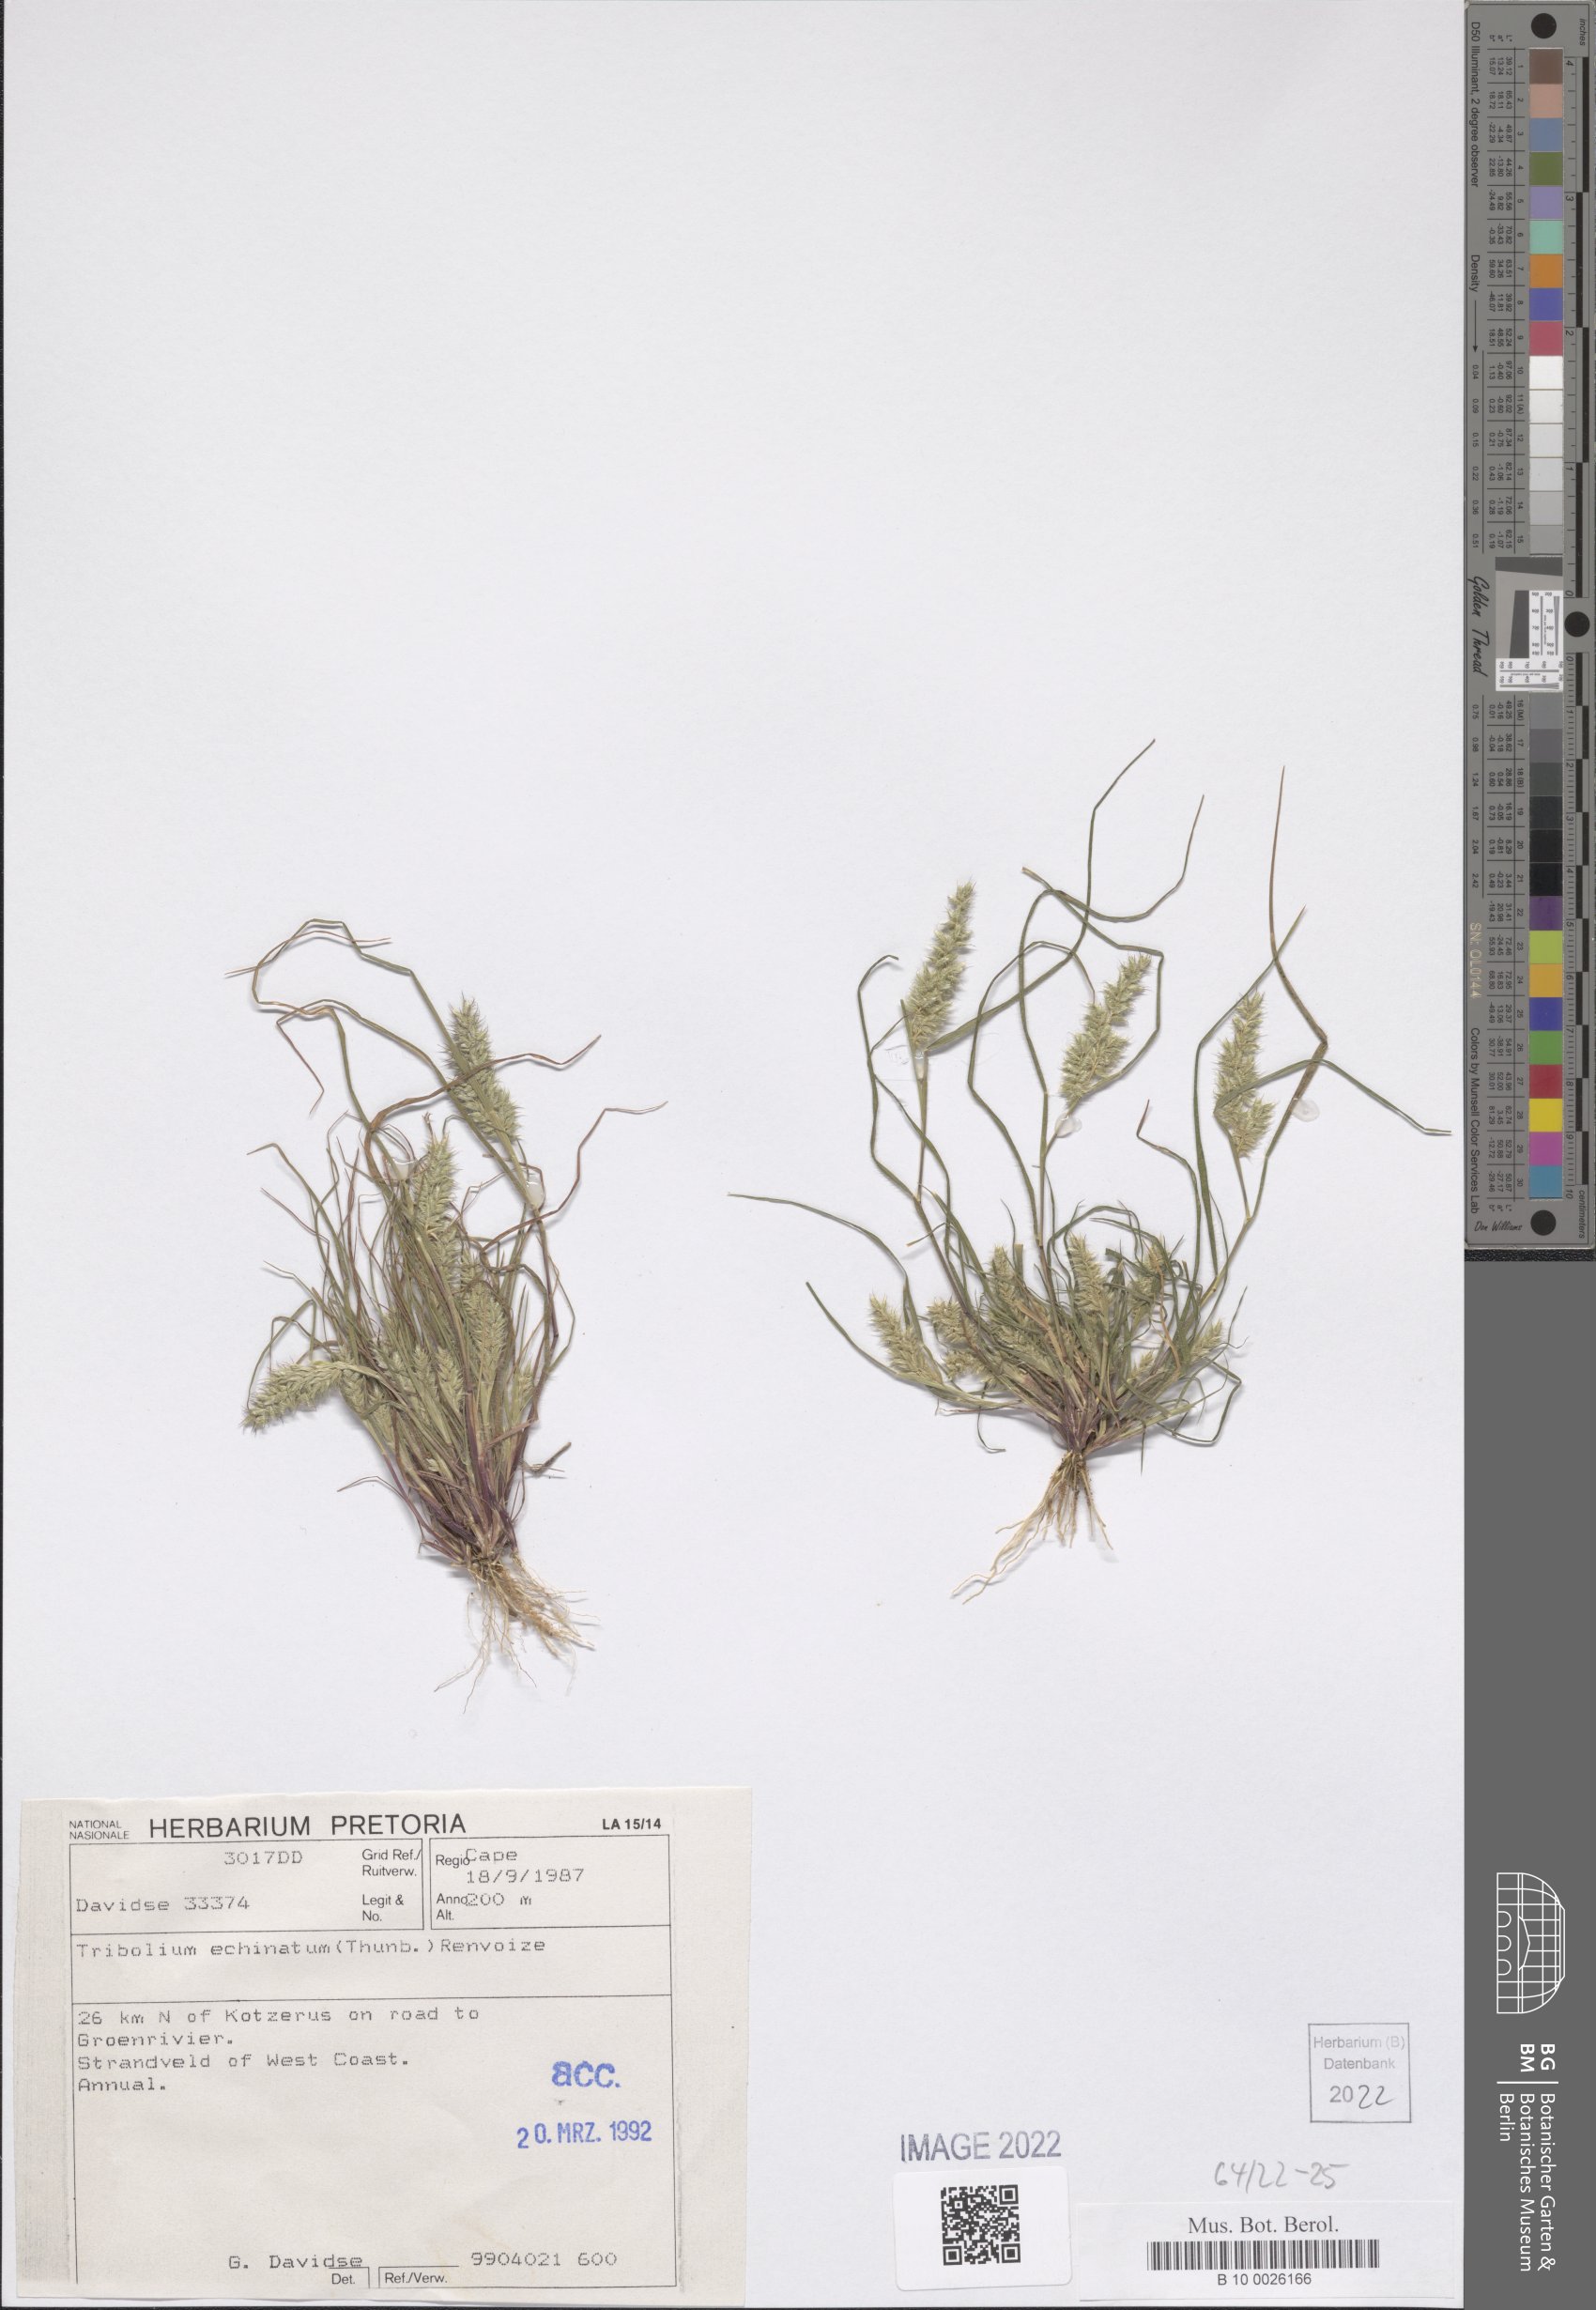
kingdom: Plantae
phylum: Tracheophyta
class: Liliopsida
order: Poales
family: Poaceae
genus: Tribolium
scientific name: Tribolium echinatum
